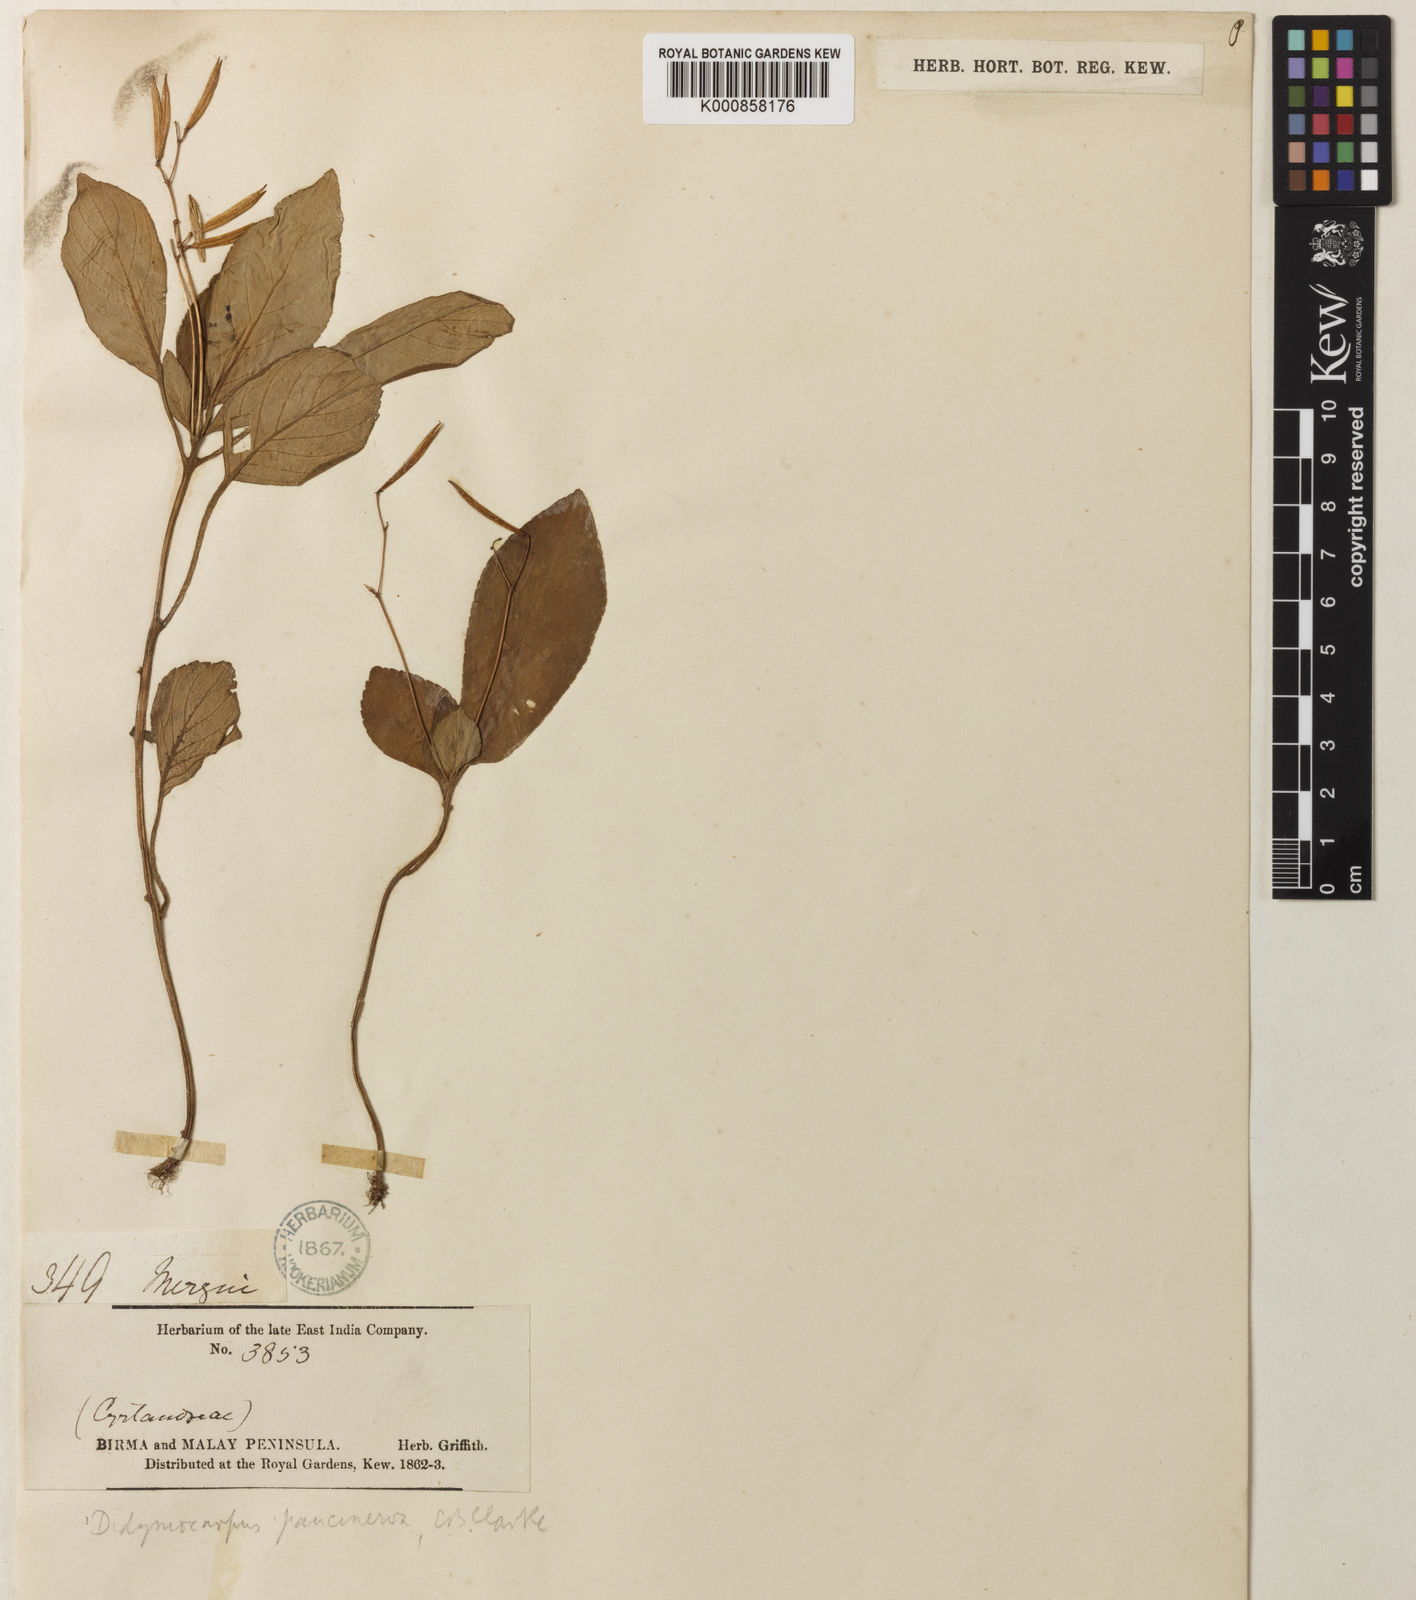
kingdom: Plantae
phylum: Tracheophyta
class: Magnoliopsida
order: Lamiales
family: Gesneriaceae
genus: Henckelia
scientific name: Henckelia
